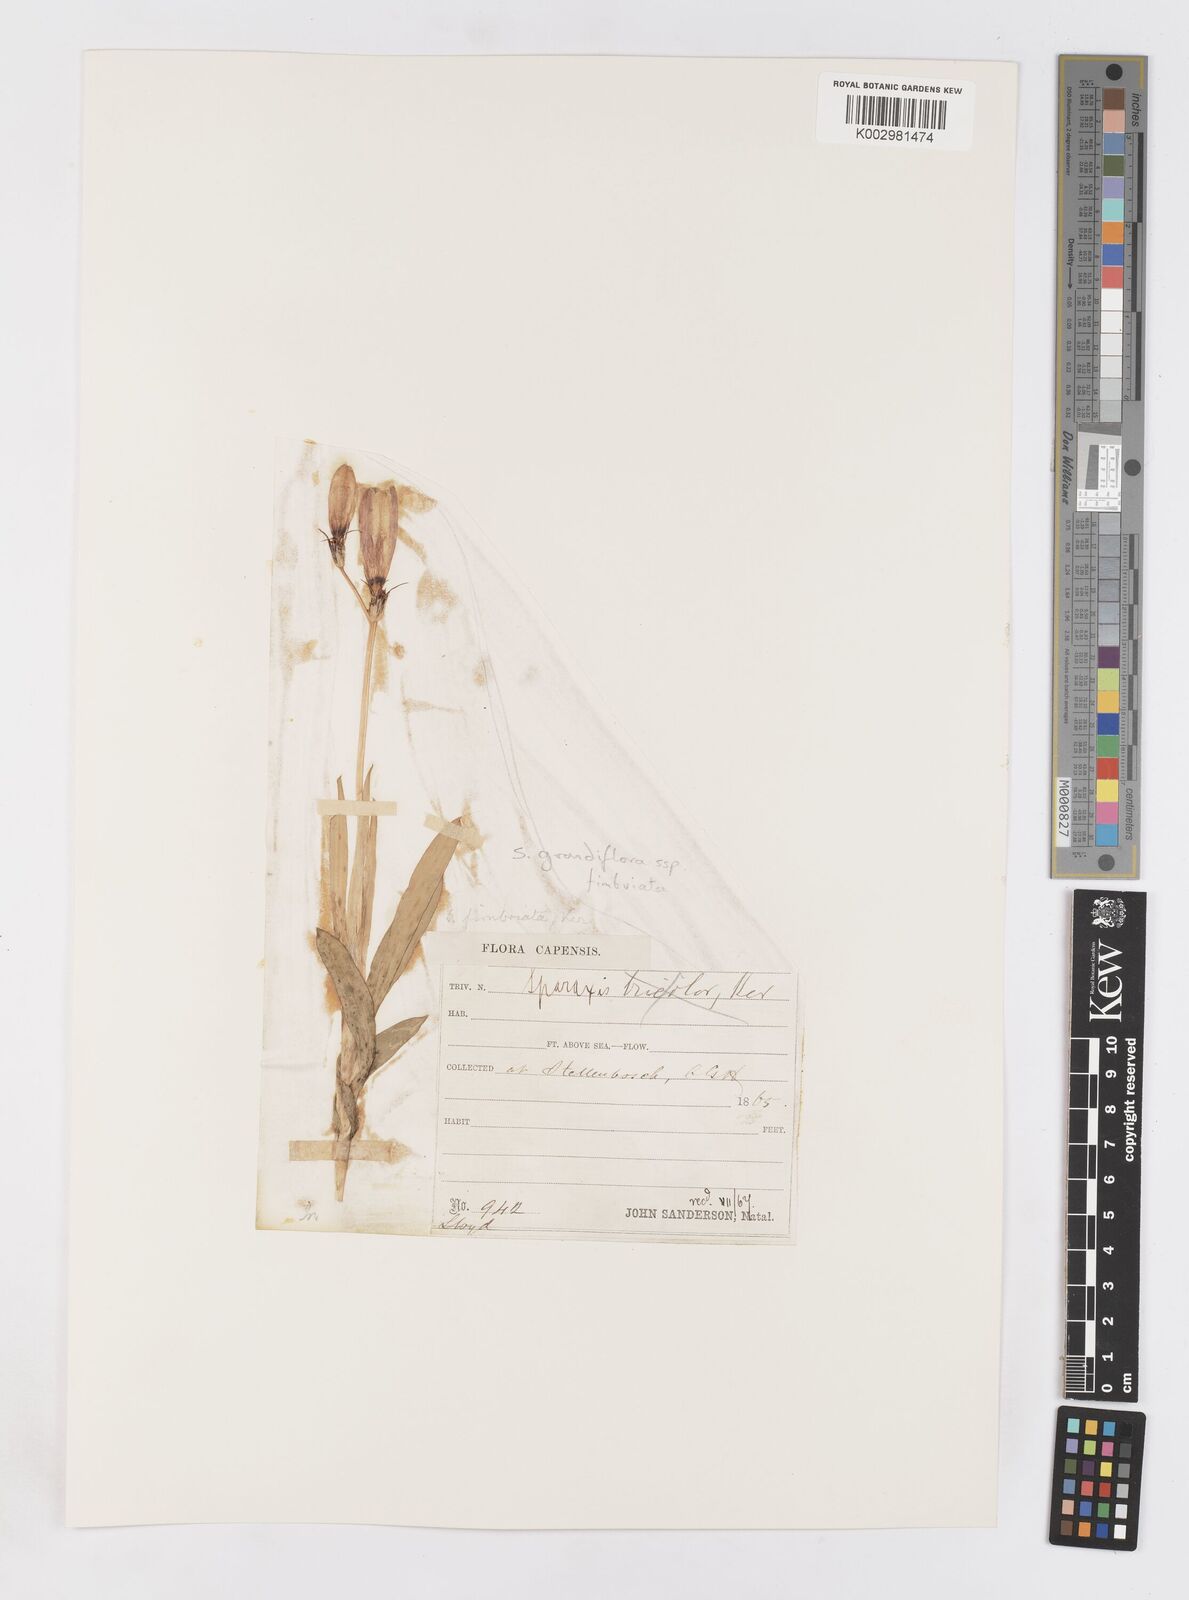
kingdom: Plantae
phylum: Tracheophyta
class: Liliopsida
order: Asparagales
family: Iridaceae
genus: Sparaxis
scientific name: Sparaxis grandiflora
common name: Plain harlequin-flower
